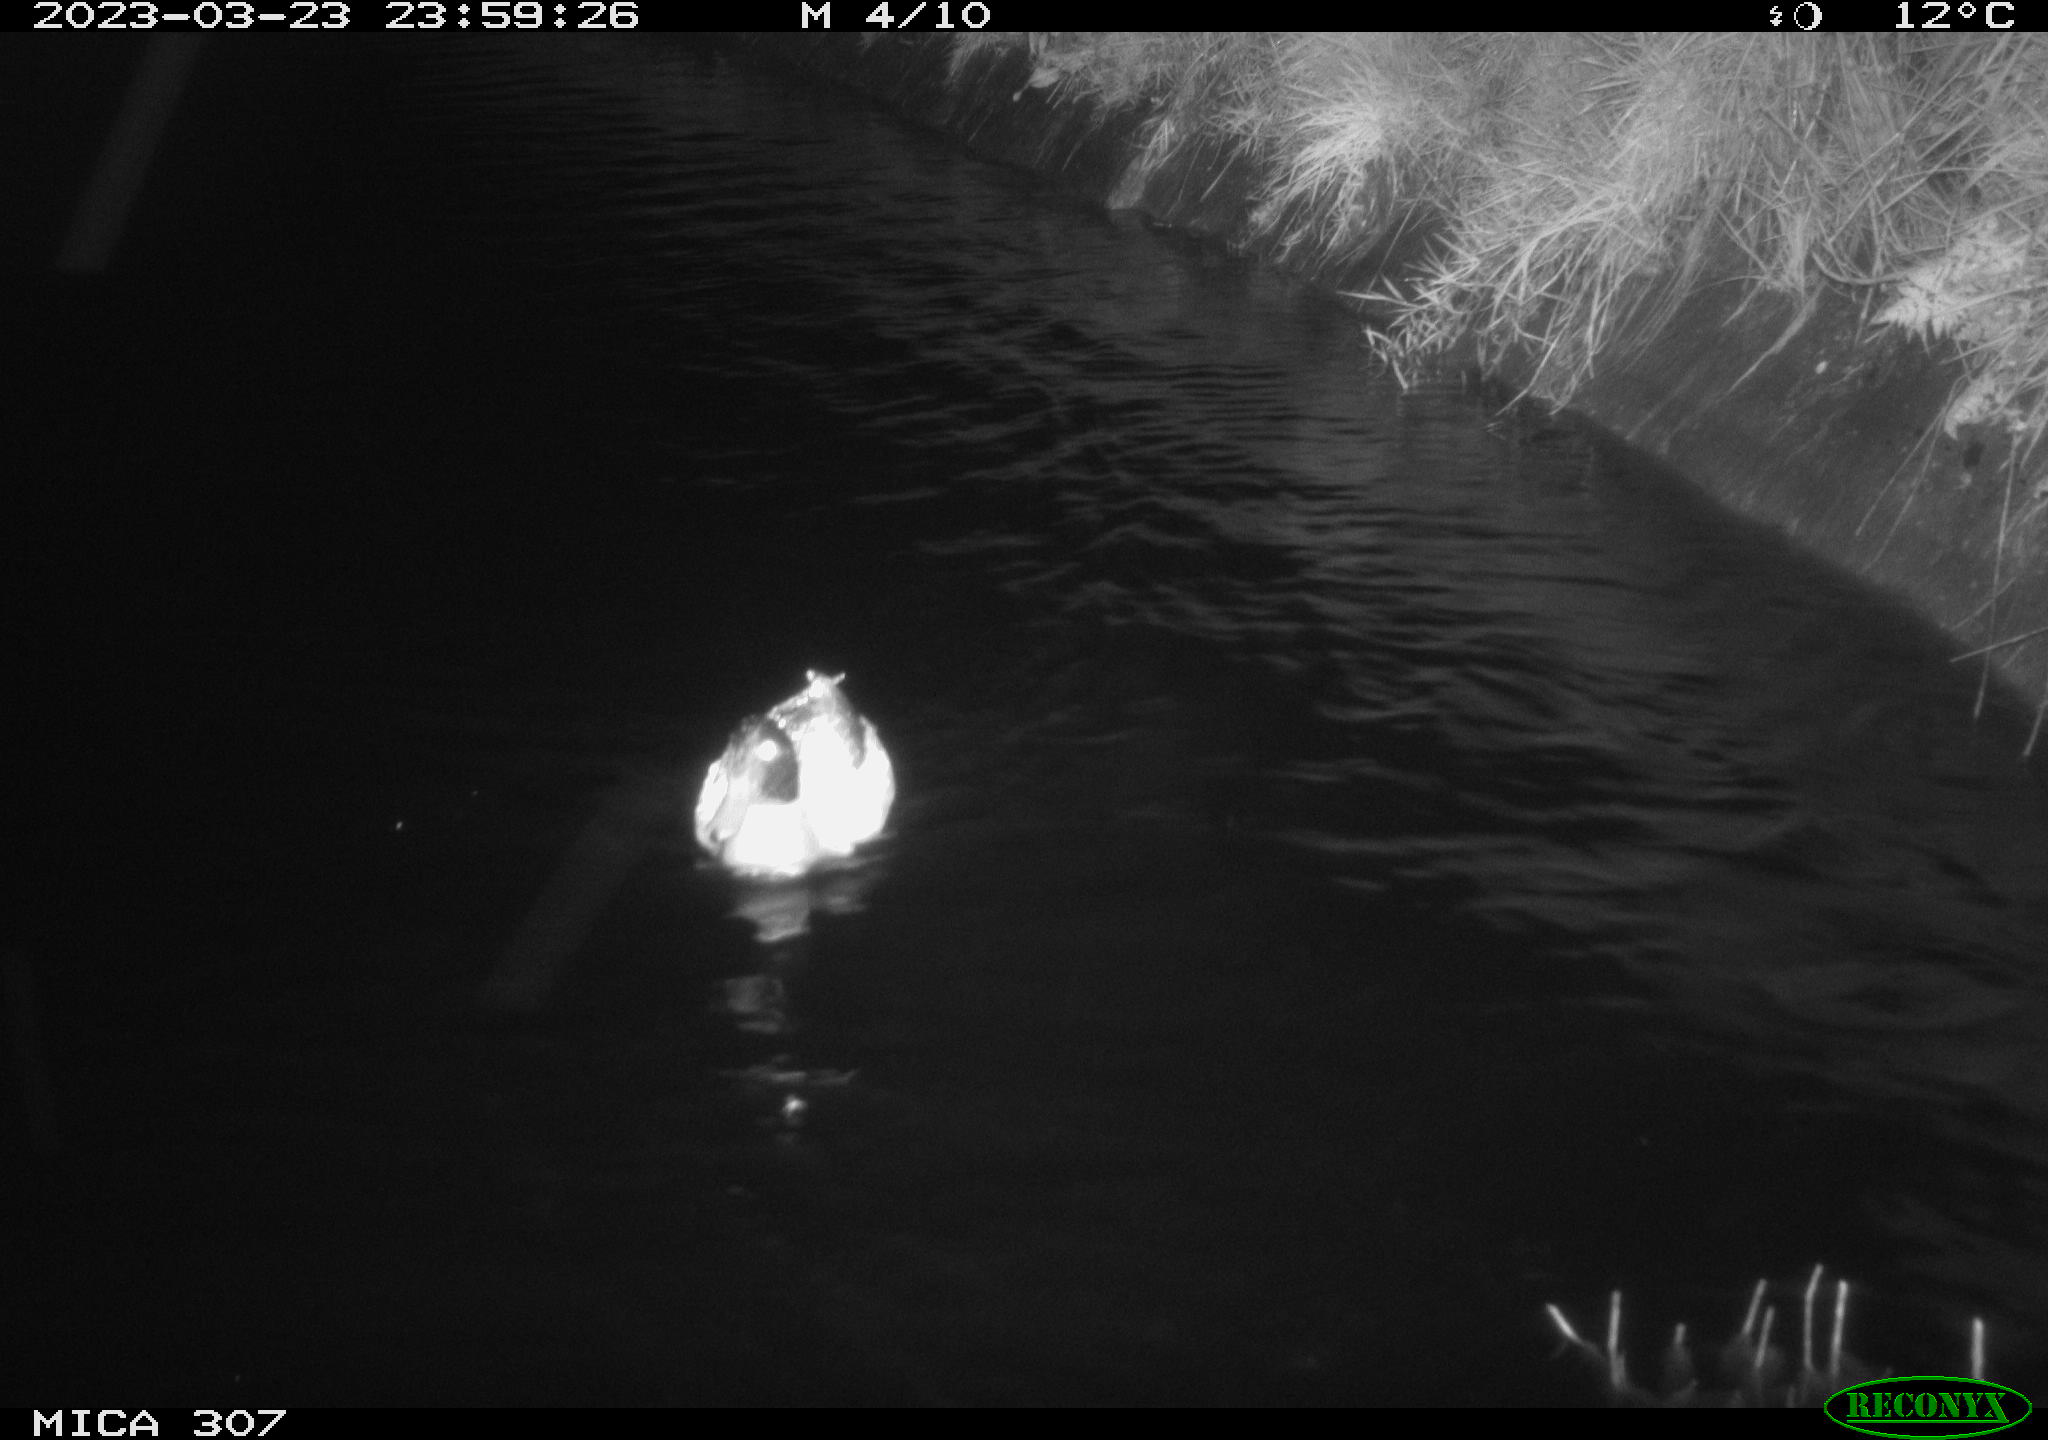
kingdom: Animalia
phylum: Chordata
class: Aves
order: Anseriformes
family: Anatidae
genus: Anas
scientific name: Anas
